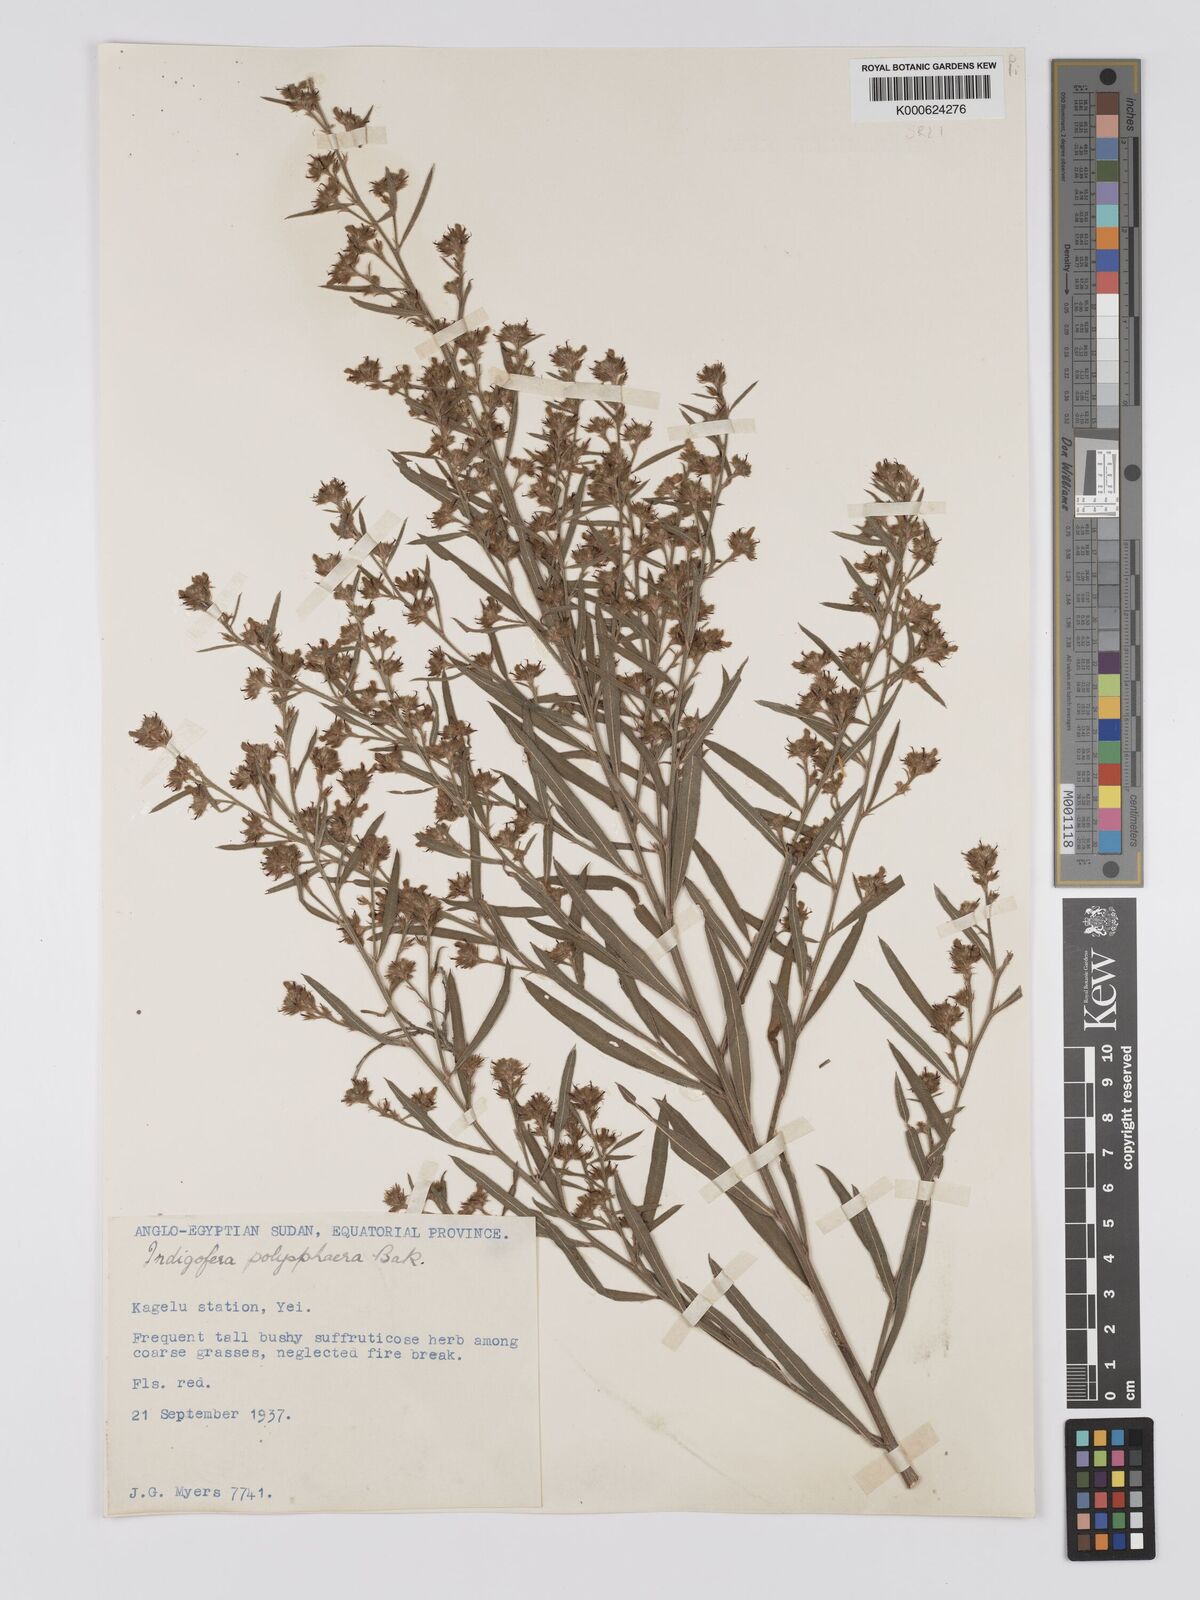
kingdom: Plantae
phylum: Tracheophyta
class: Magnoliopsida
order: Fabales
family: Fabaceae
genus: Indigofera
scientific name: Indigofera polysphaera
